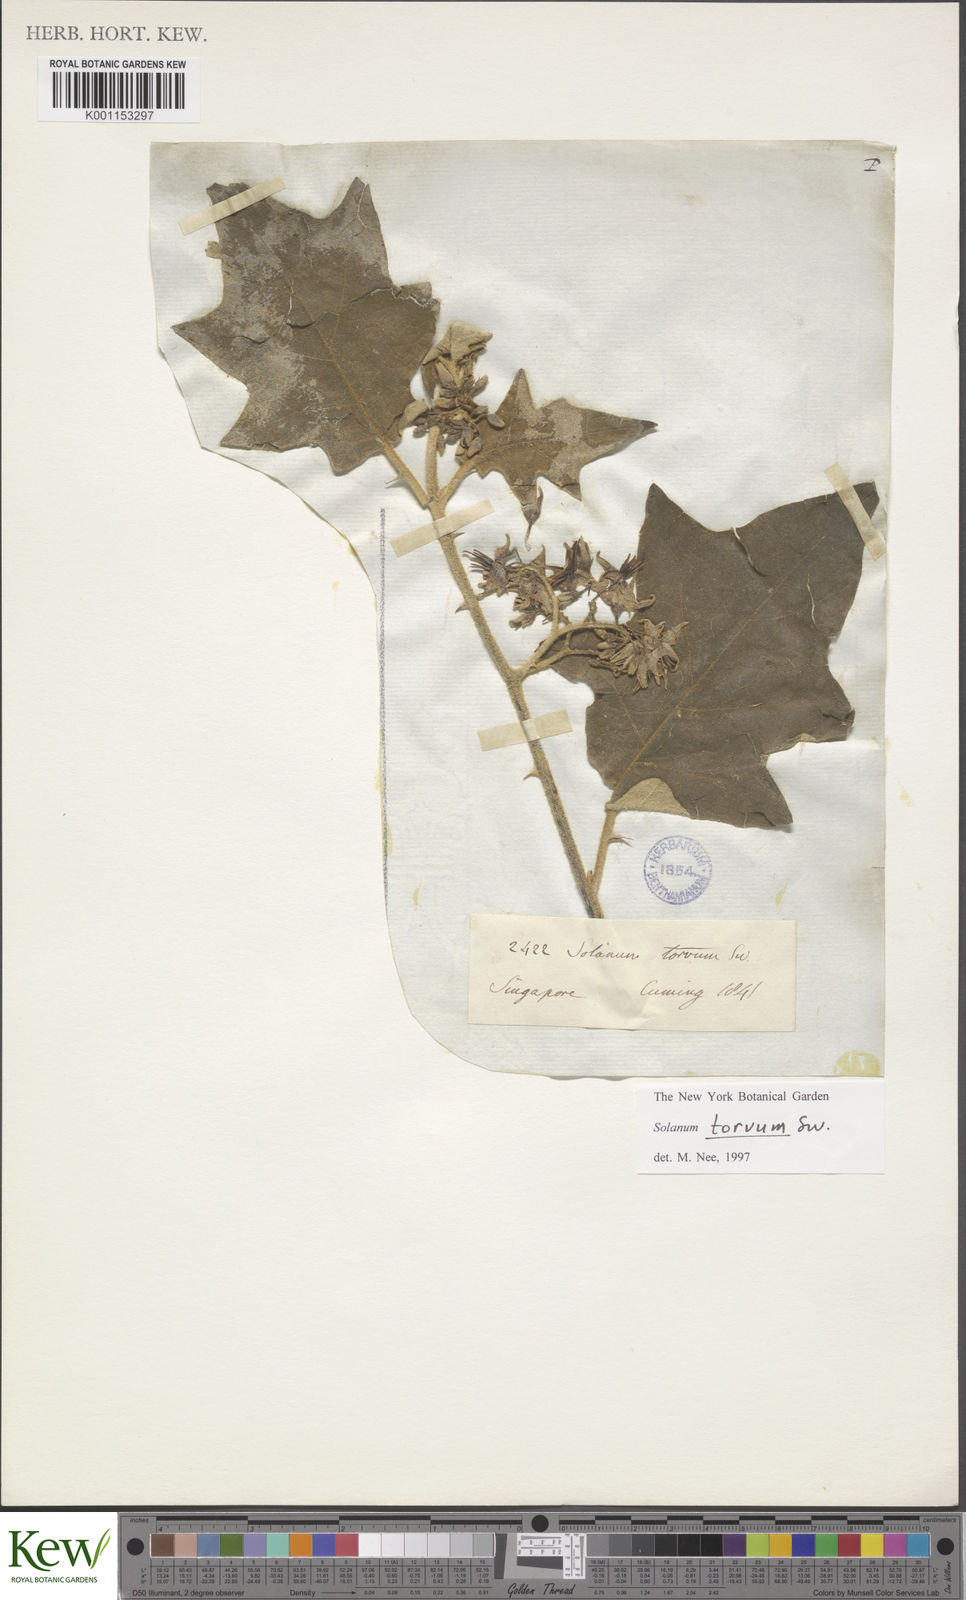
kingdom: Plantae
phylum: Tracheophyta
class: Magnoliopsida
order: Solanales
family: Solanaceae
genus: Solanum
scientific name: Solanum torvum
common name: Turkey berry
